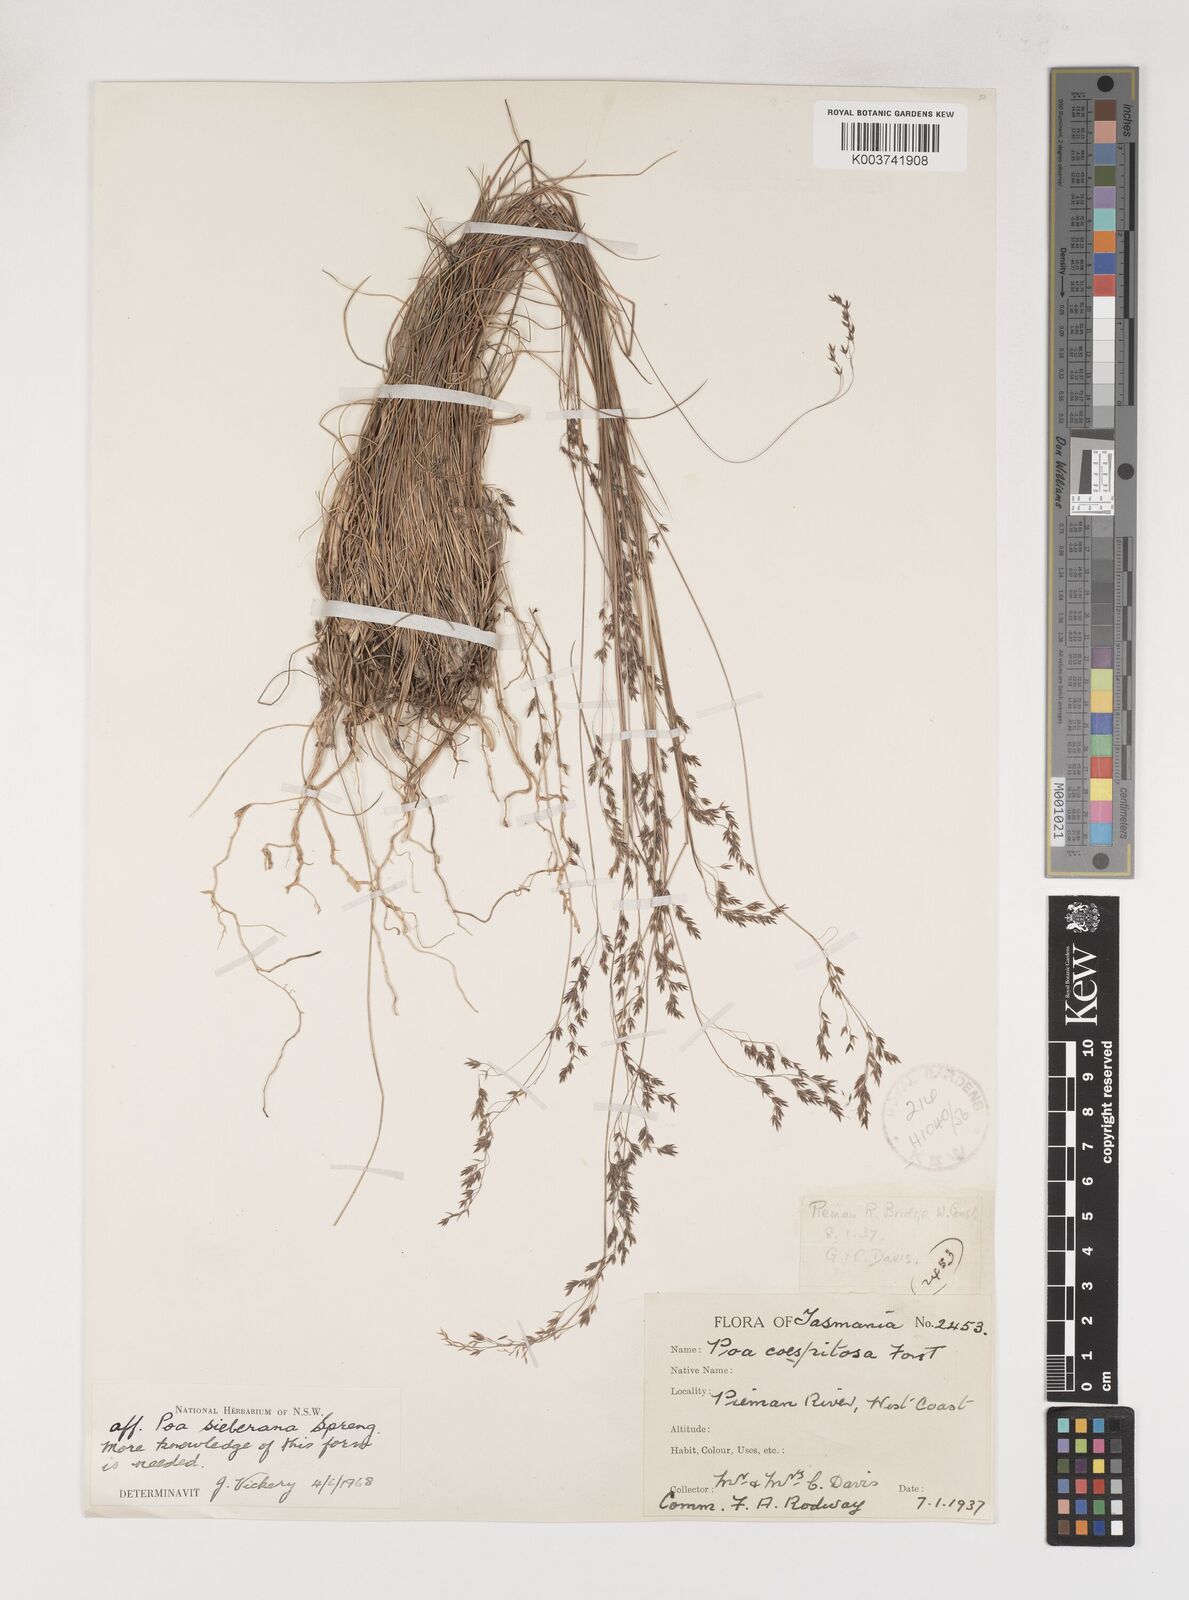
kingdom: Plantae
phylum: Tracheophyta
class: Liliopsida
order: Poales
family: Poaceae
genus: Poa
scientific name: Poa sieberiana
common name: Tussock poa
